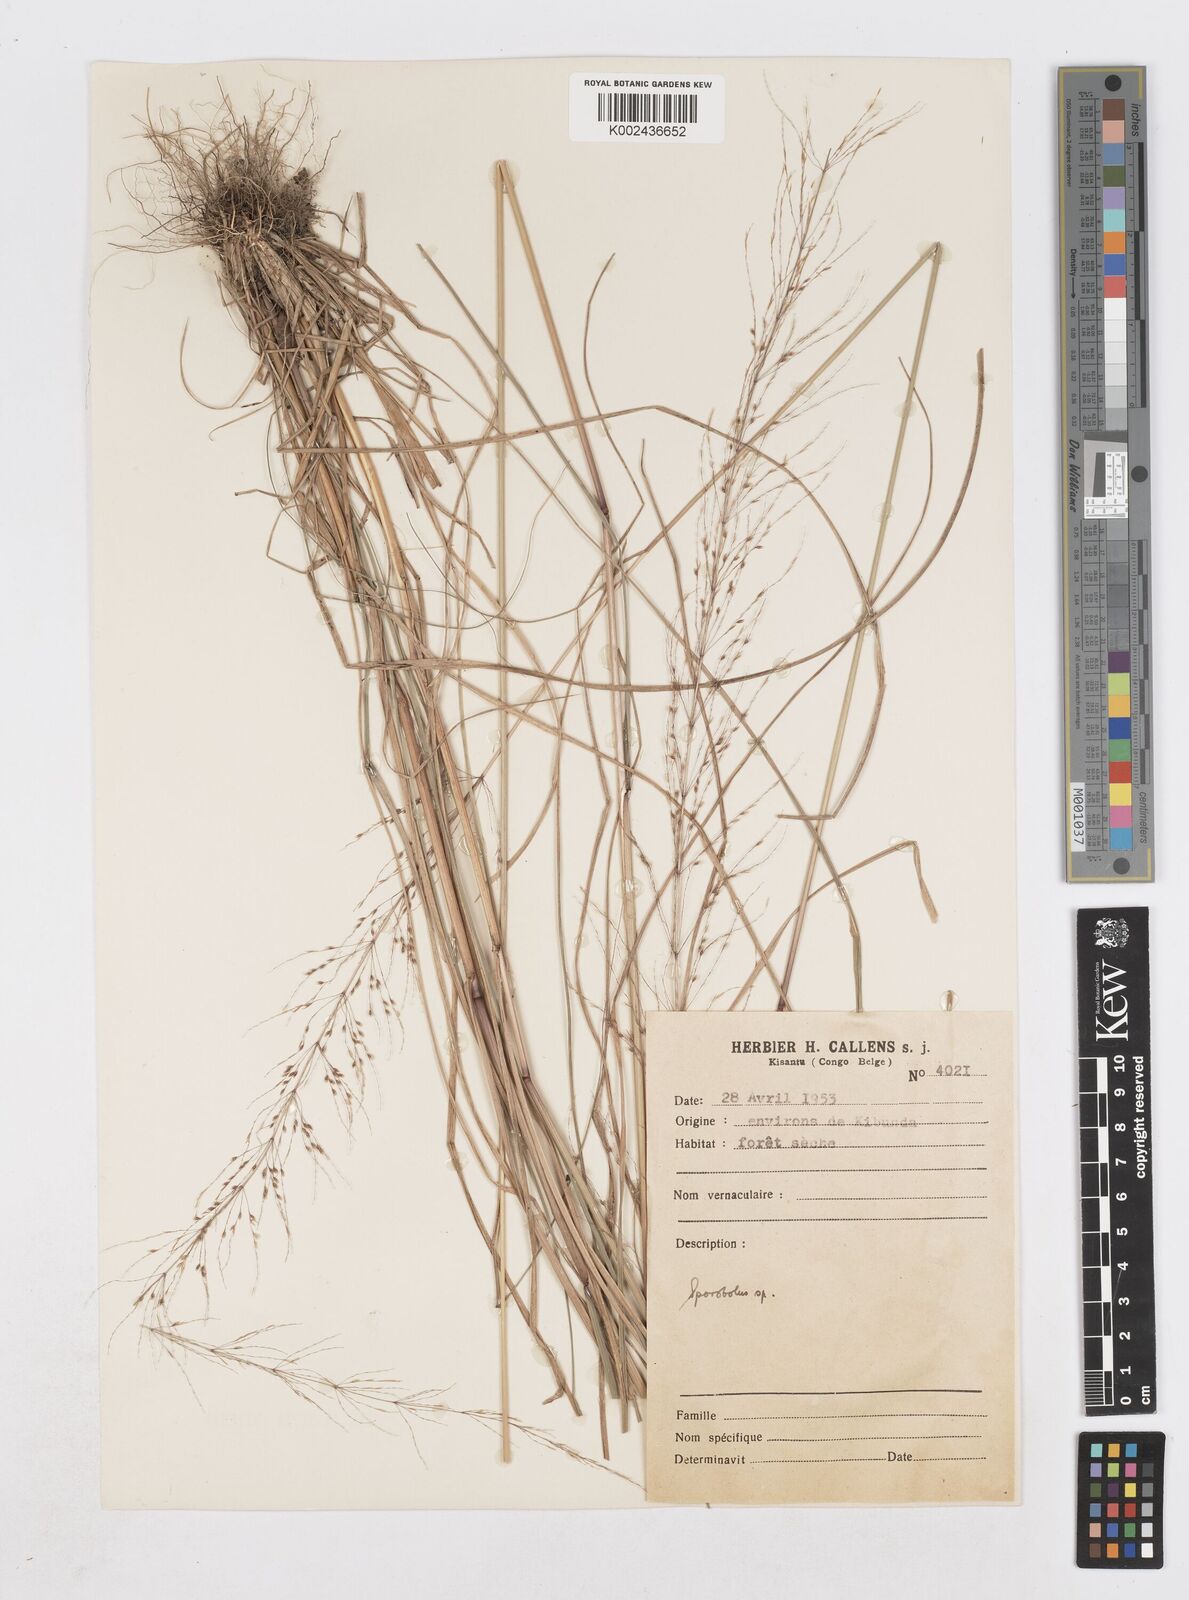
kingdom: Plantae
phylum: Tracheophyta
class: Liliopsida
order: Poales
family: Poaceae
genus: Sporobolus
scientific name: Sporobolus sanguineus
